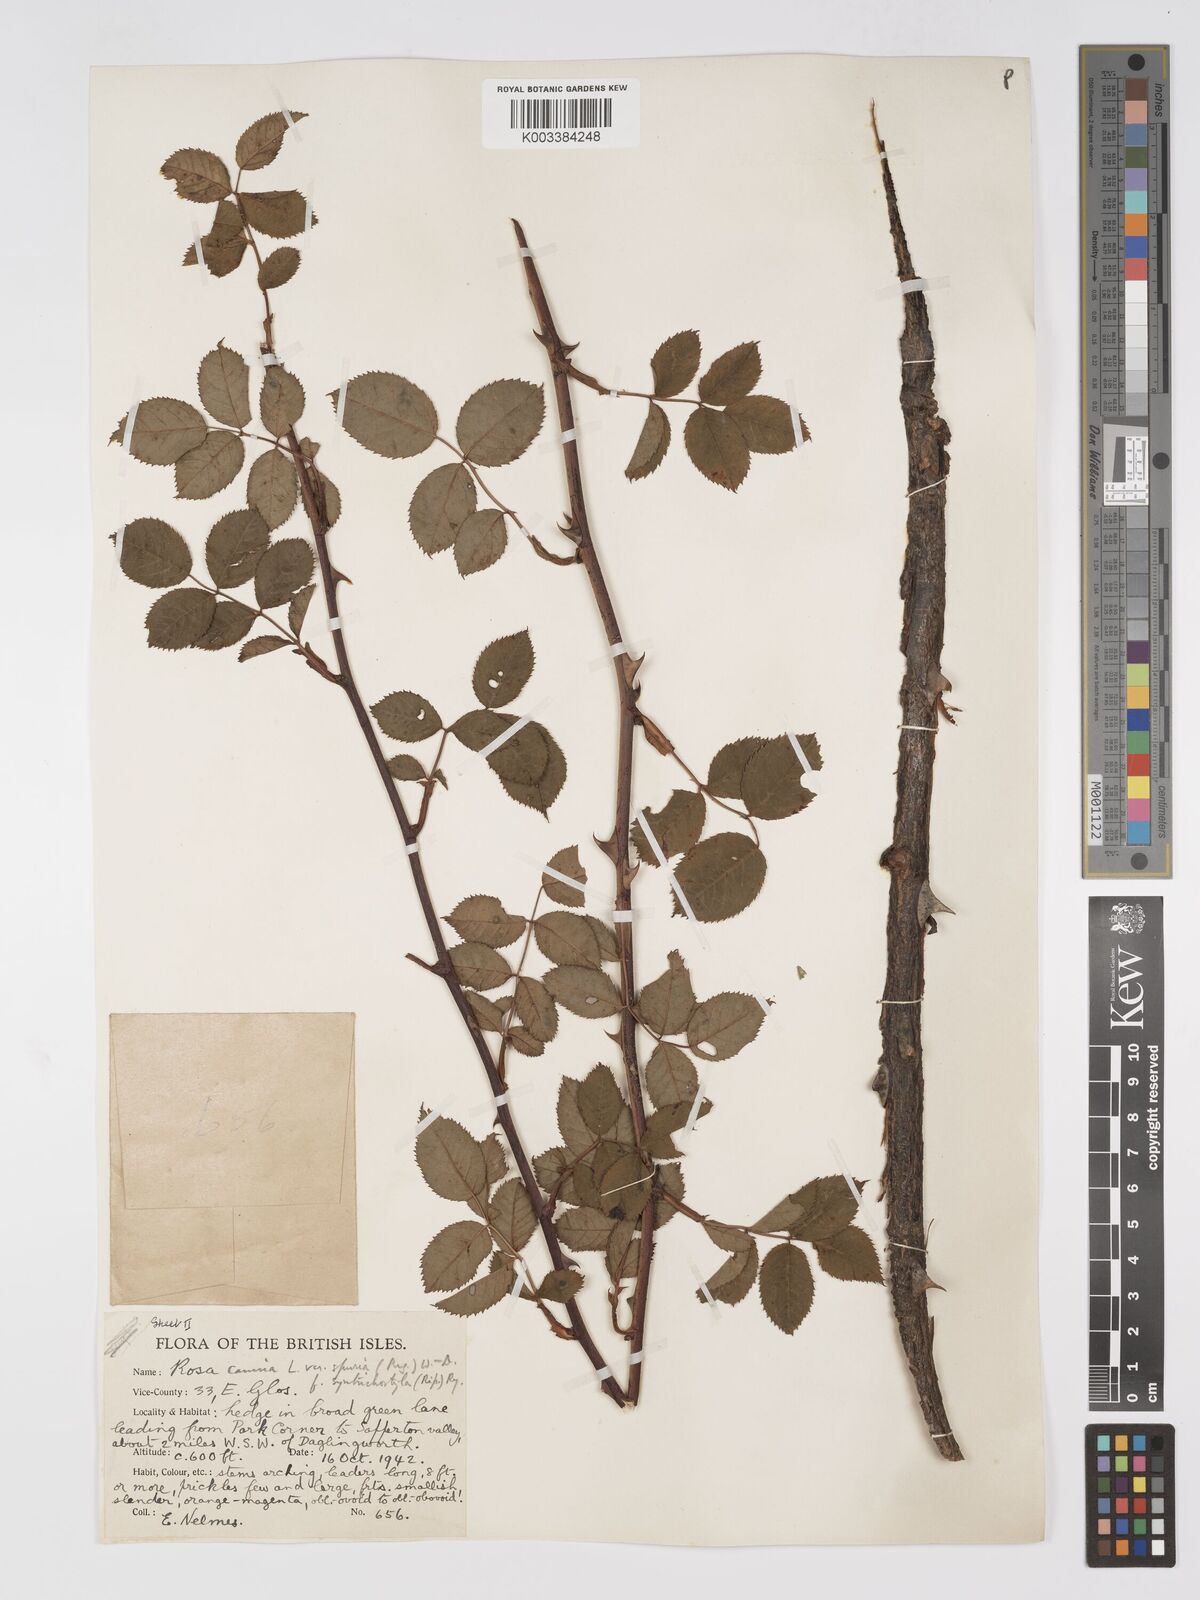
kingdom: Plantae
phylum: Tracheophyta
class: Magnoliopsida
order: Rosales
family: Rosaceae
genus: Rosa
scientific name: Rosa canina
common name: Dog rose
